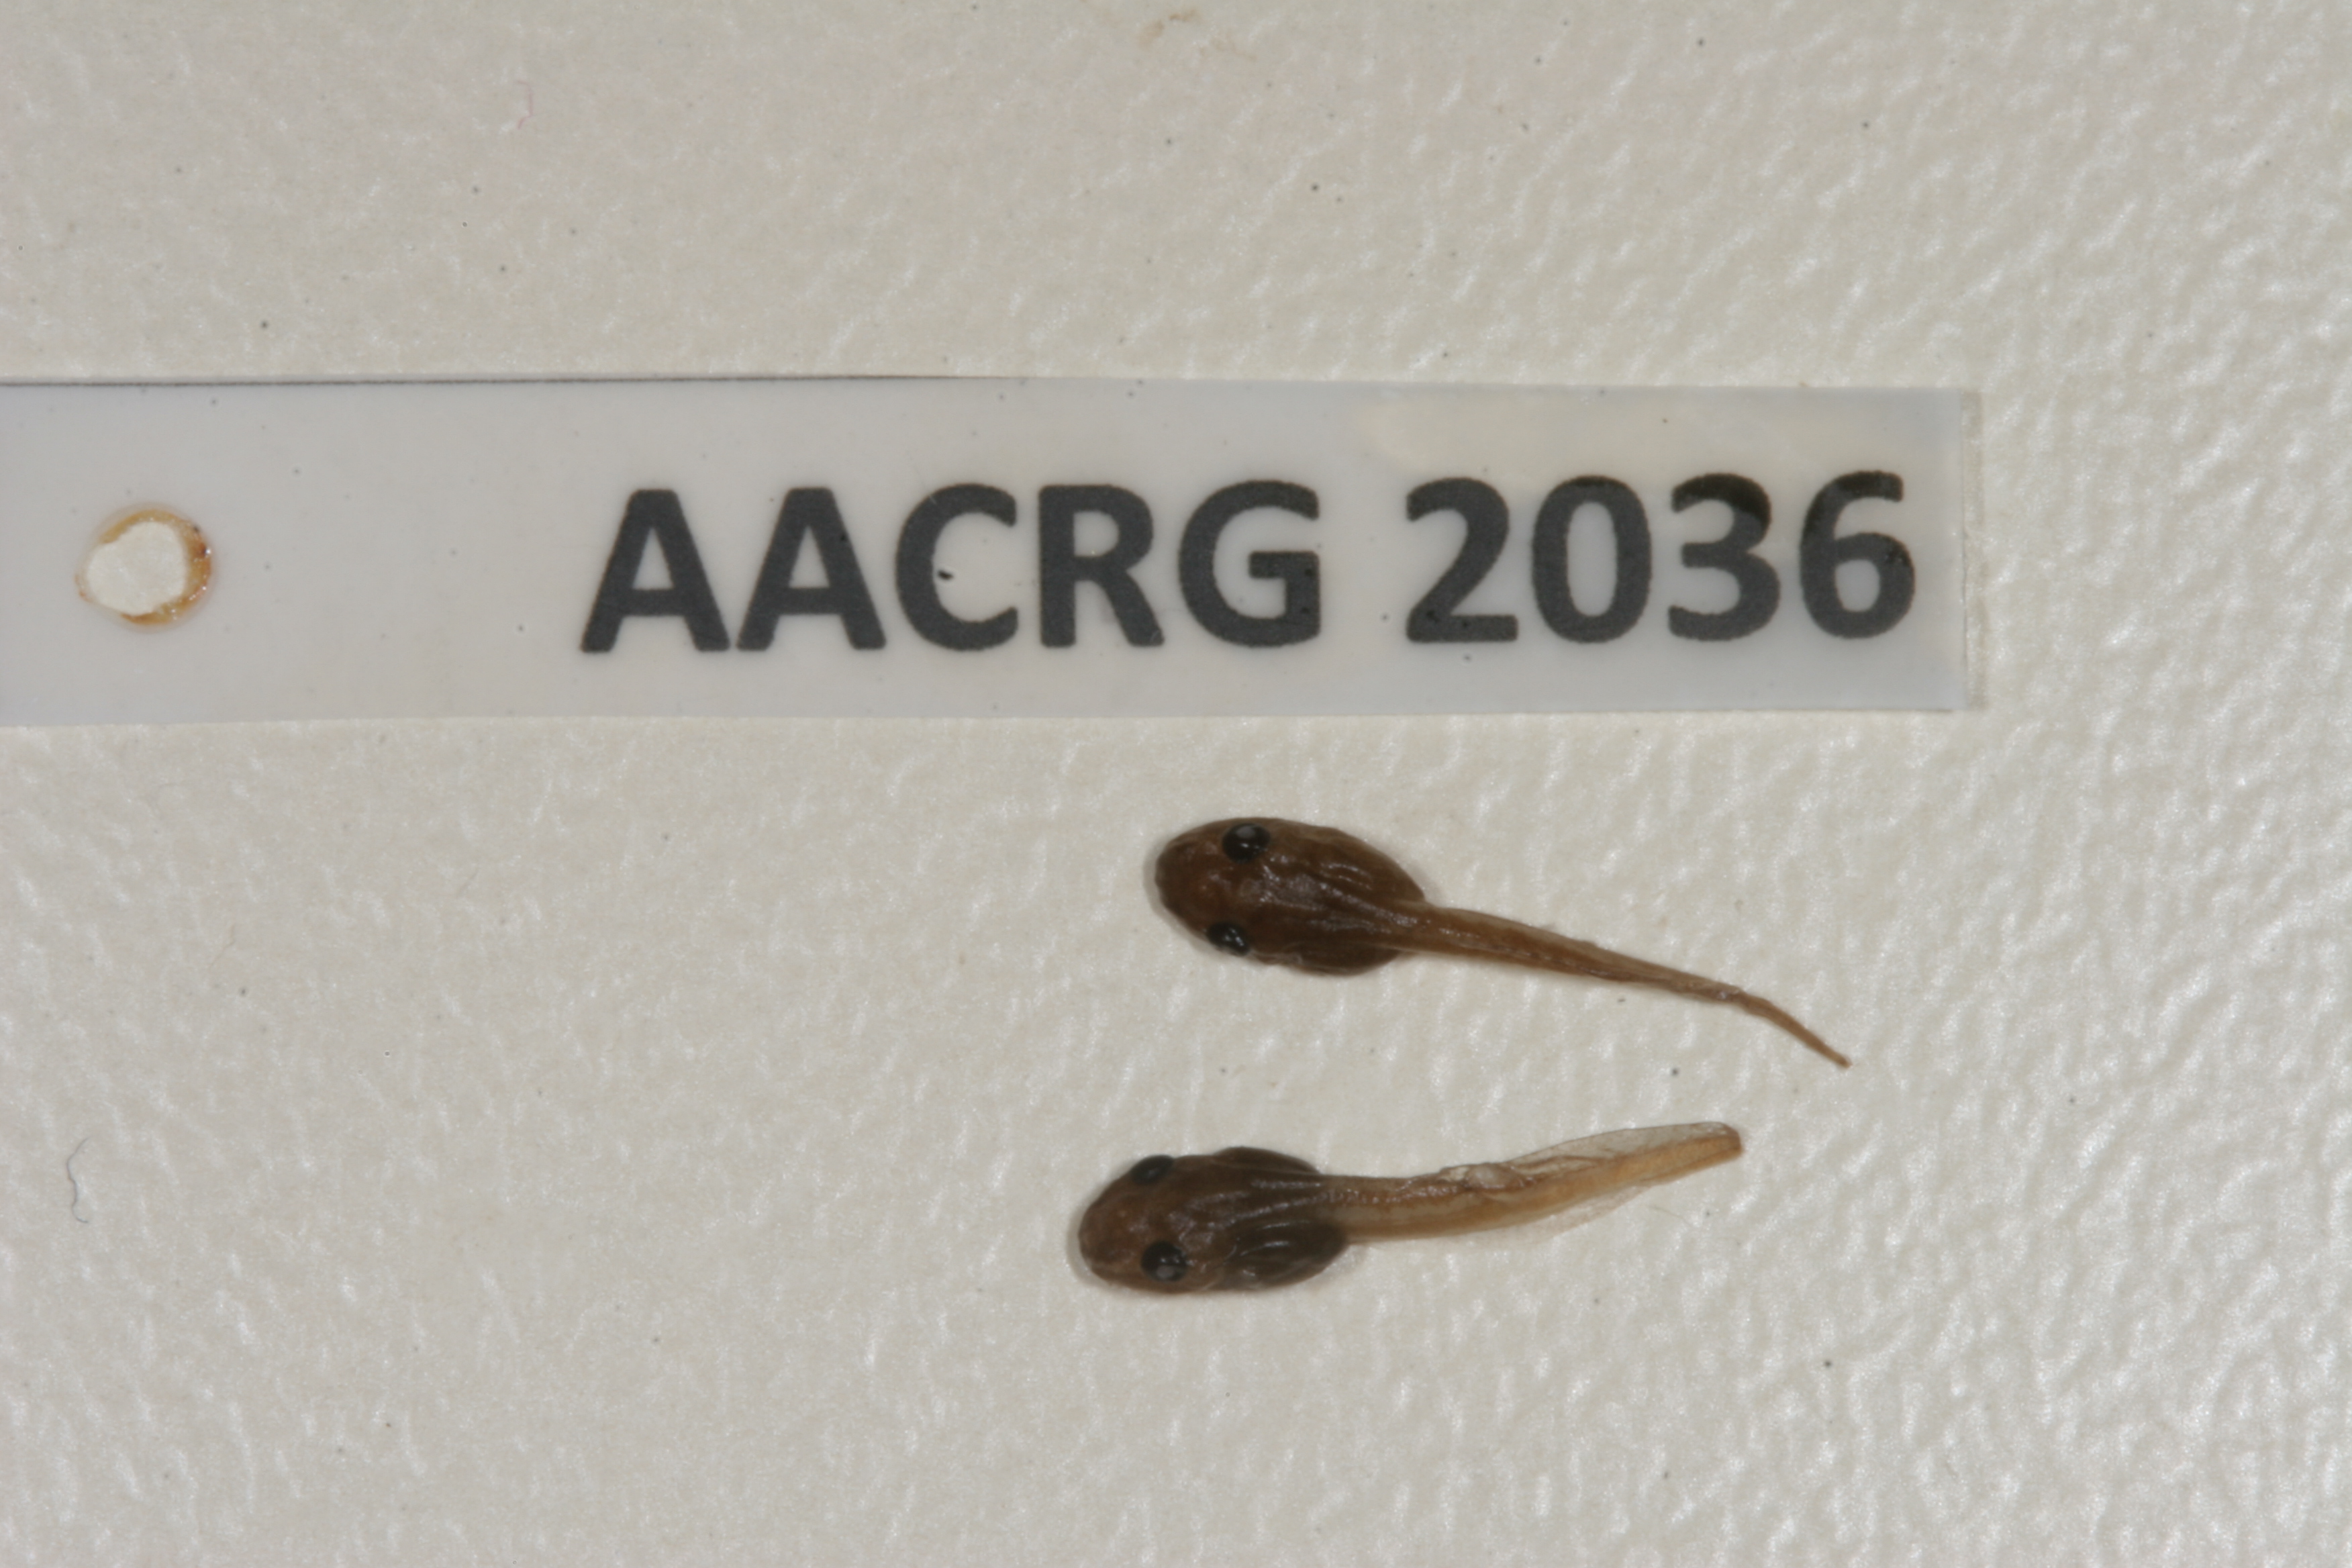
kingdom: Animalia
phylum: Chordata
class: Amphibia
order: Anura
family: Phrynobatrachidae
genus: Phrynobatrachus
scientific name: Phrynobatrachus mababiensis
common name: Dwarf puddle frog
